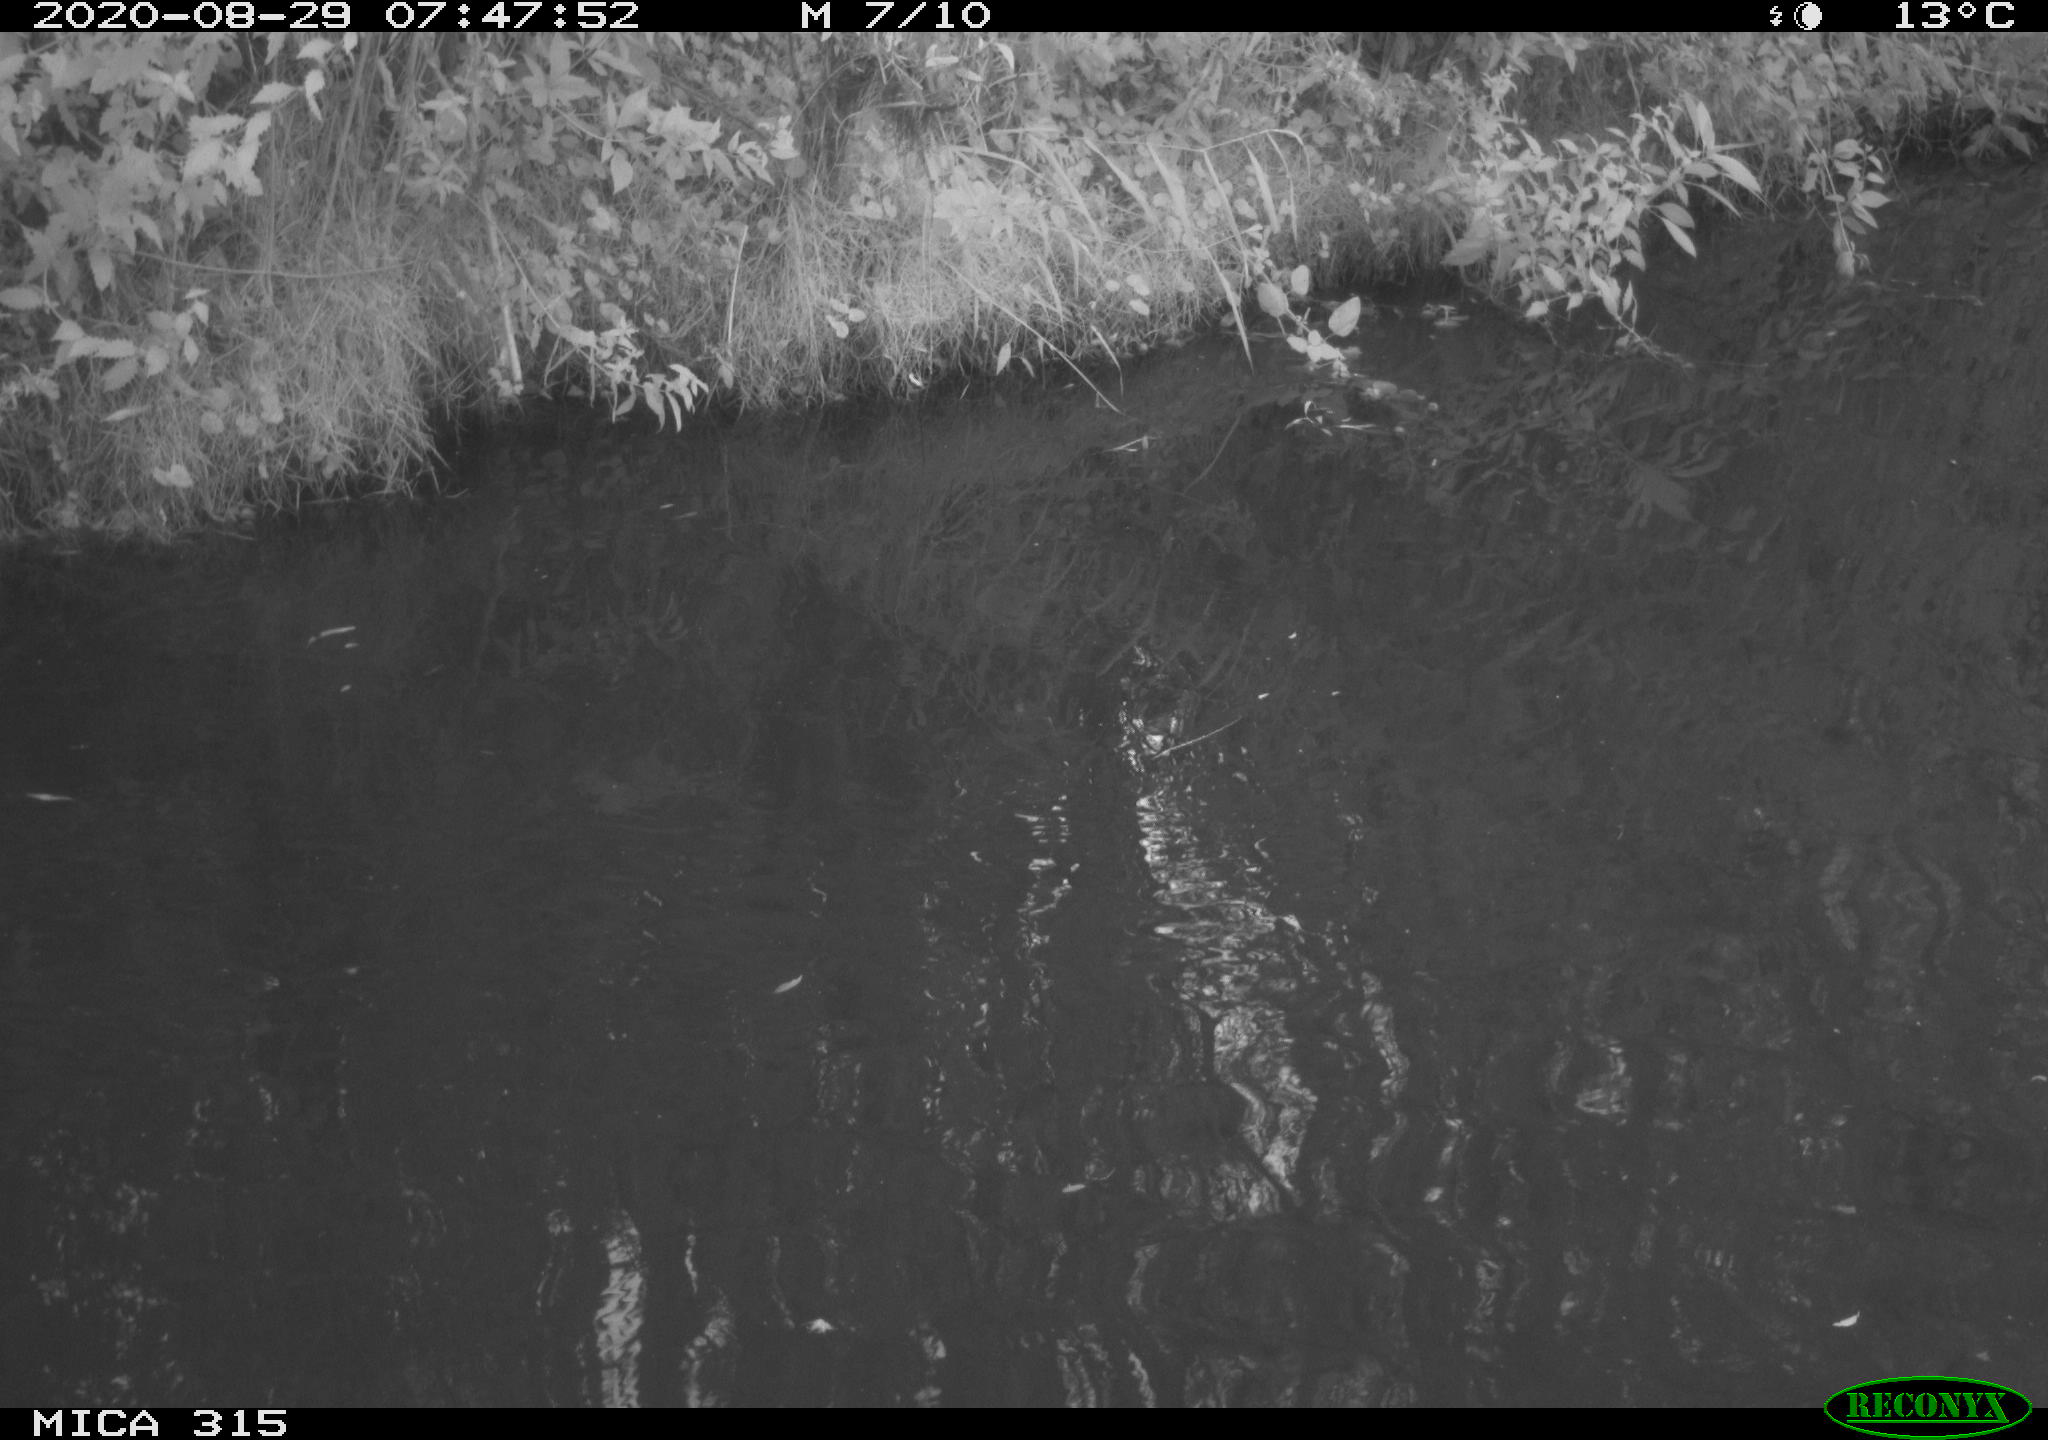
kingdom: Animalia
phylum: Chordata
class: Aves
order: Anseriformes
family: Anatidae
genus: Anas
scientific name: Anas platyrhynchos
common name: Mallard
